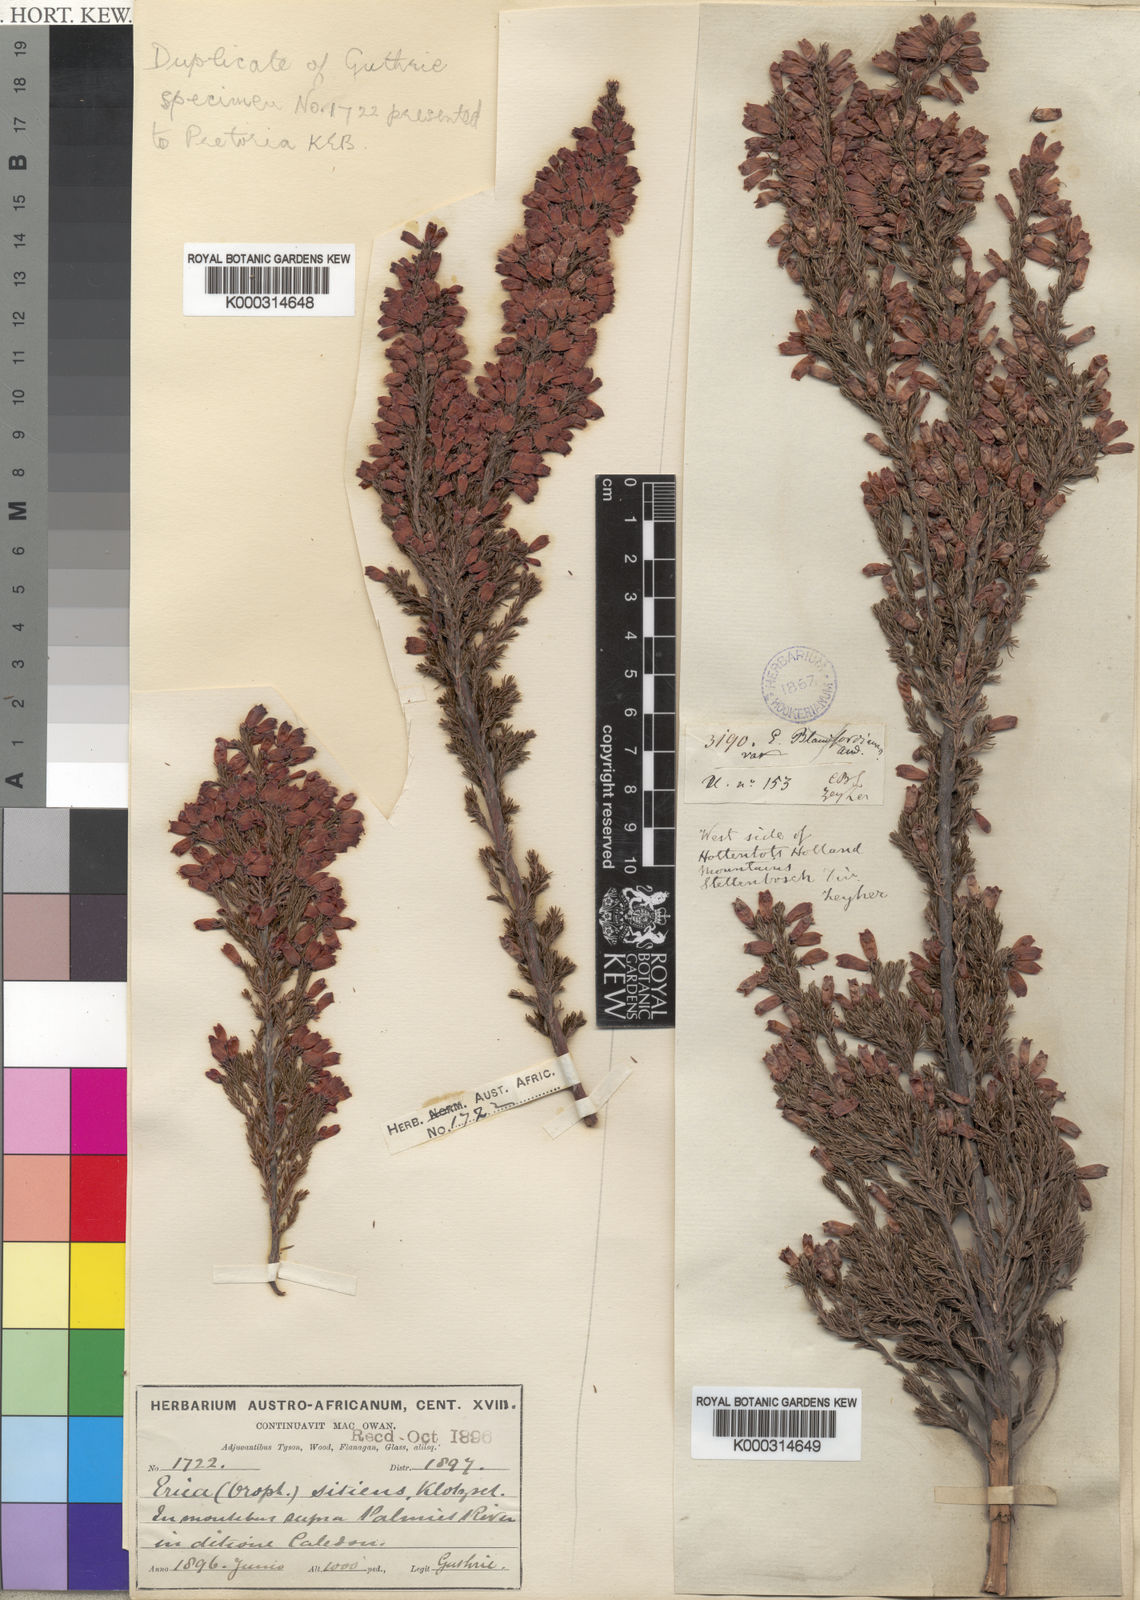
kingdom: Plantae
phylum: Tracheophyta
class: Magnoliopsida
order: Ericales
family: Ericaceae
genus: Erica
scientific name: Erica sitiens
